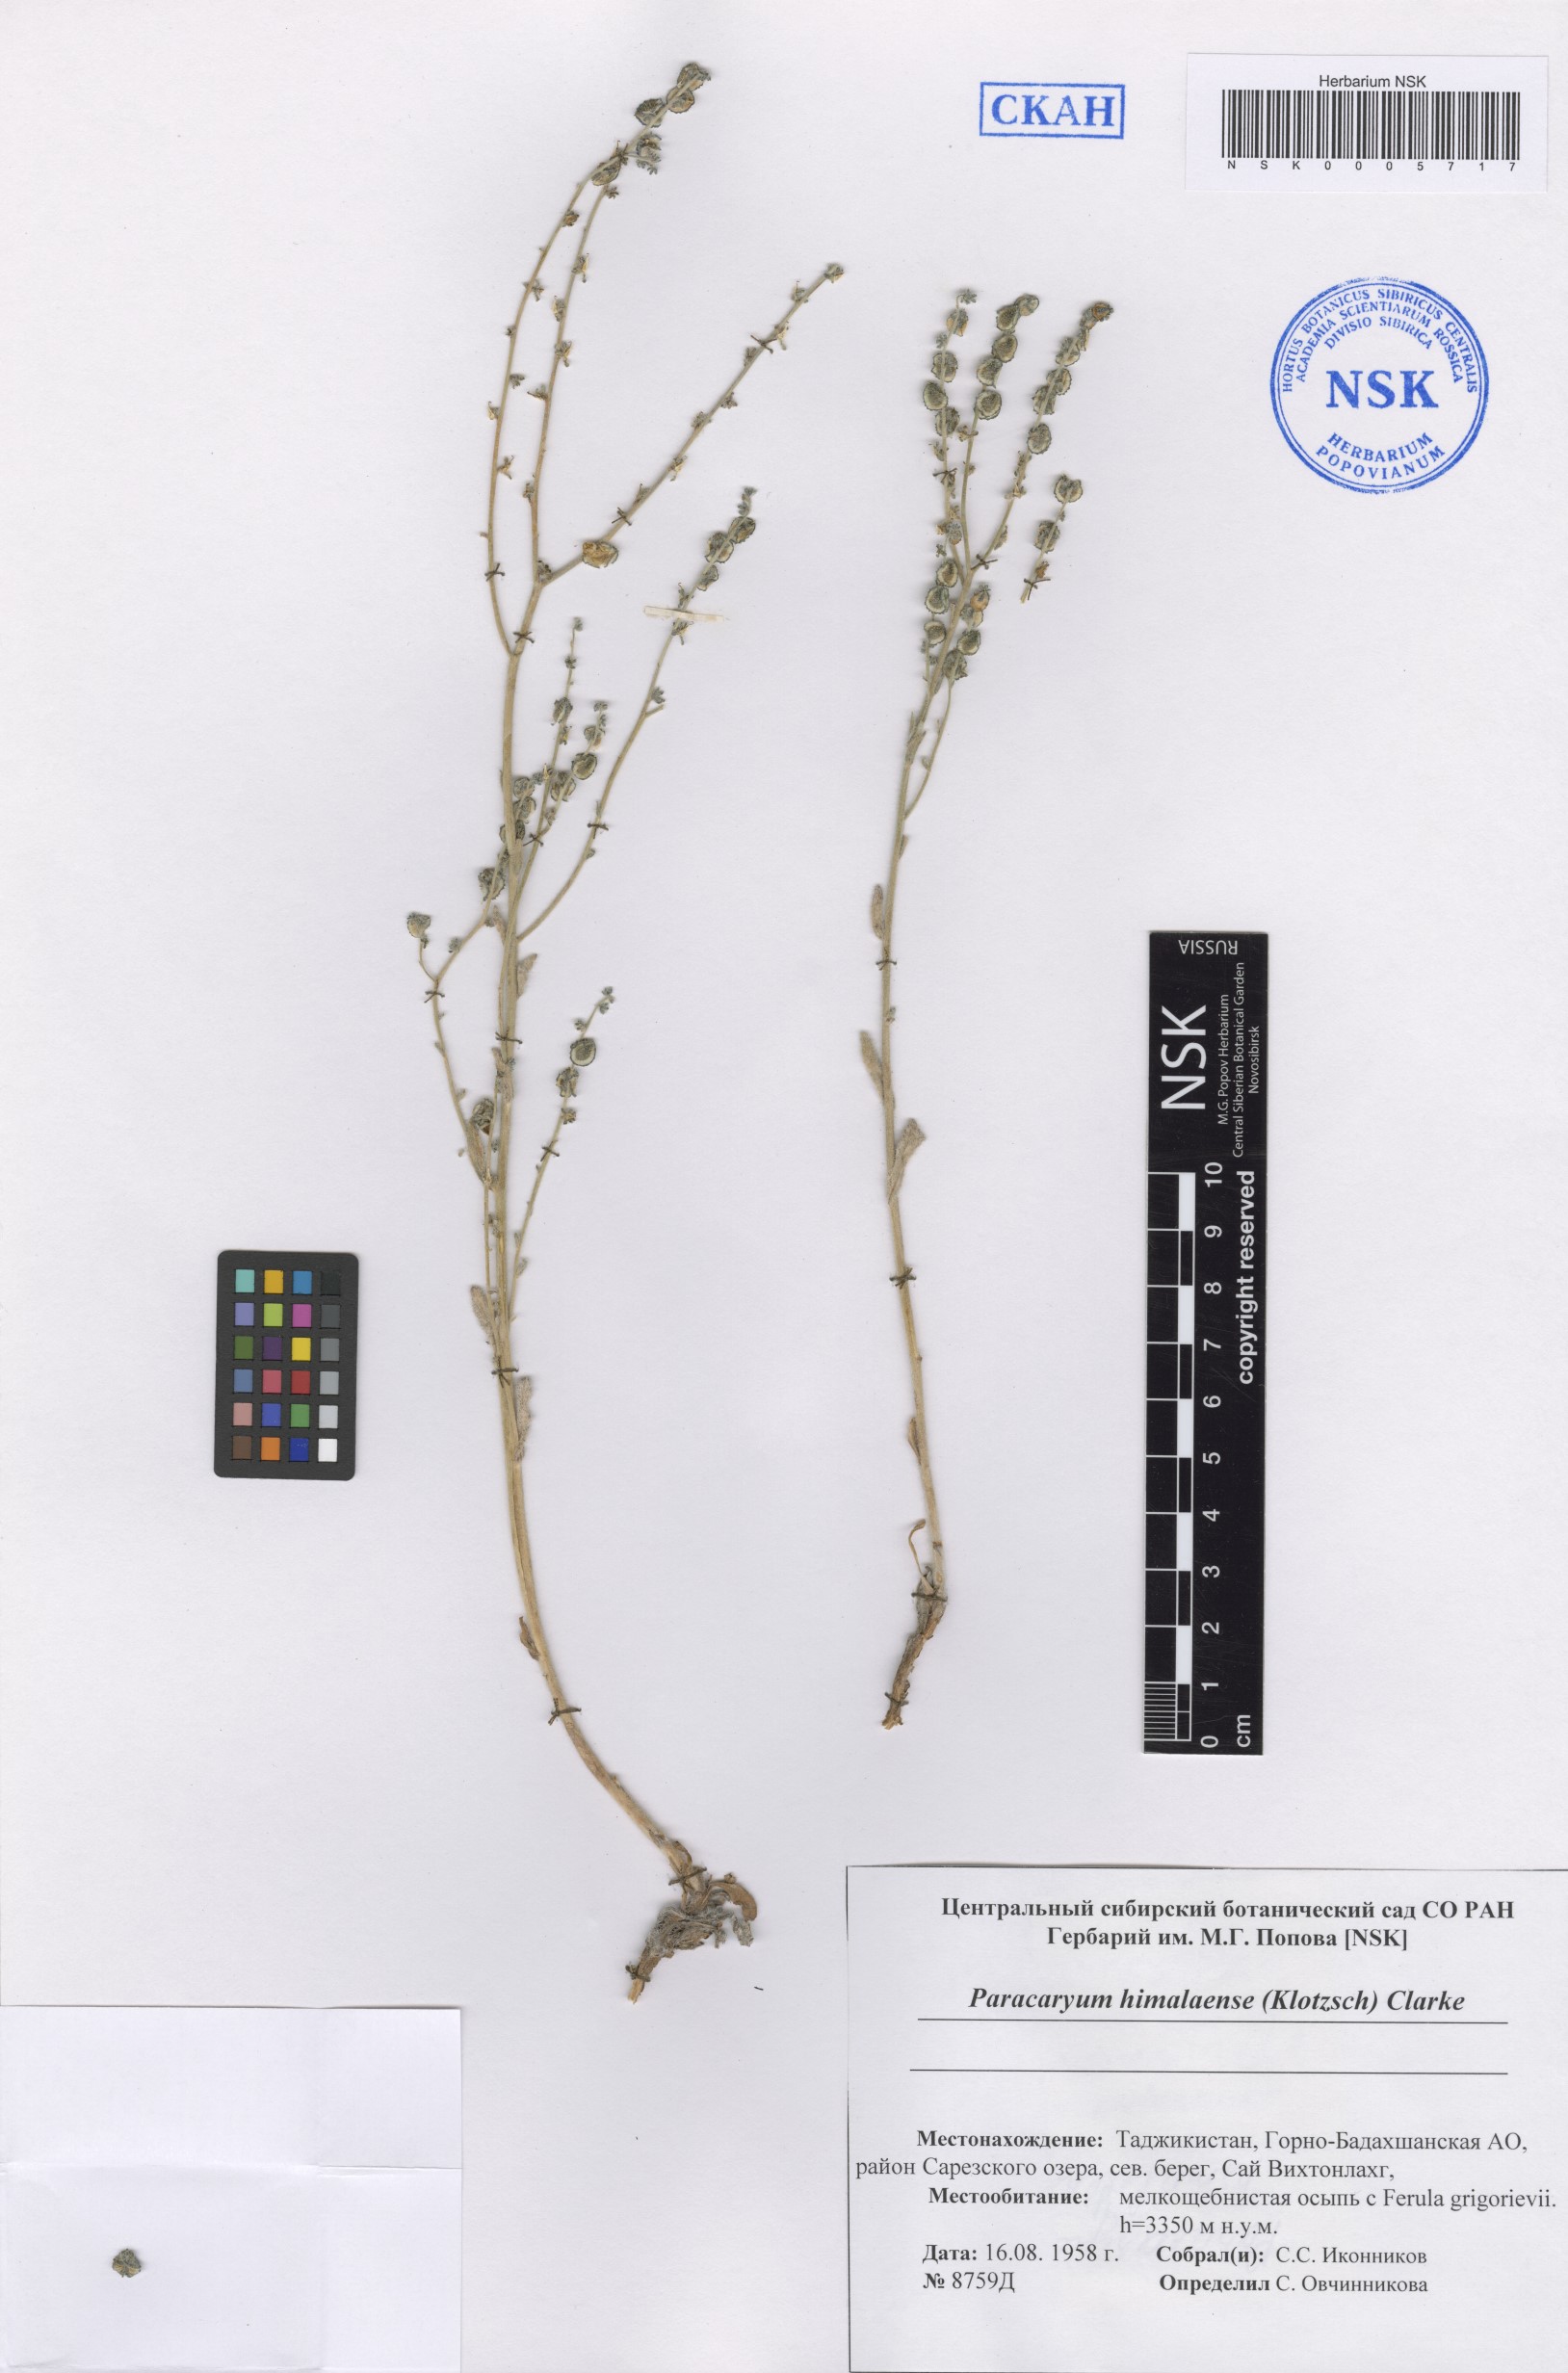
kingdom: Plantae
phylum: Tracheophyta
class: Magnoliopsida
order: Boraginales
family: Boraginaceae
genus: Paracaryum
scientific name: Paracaryum himalayense
